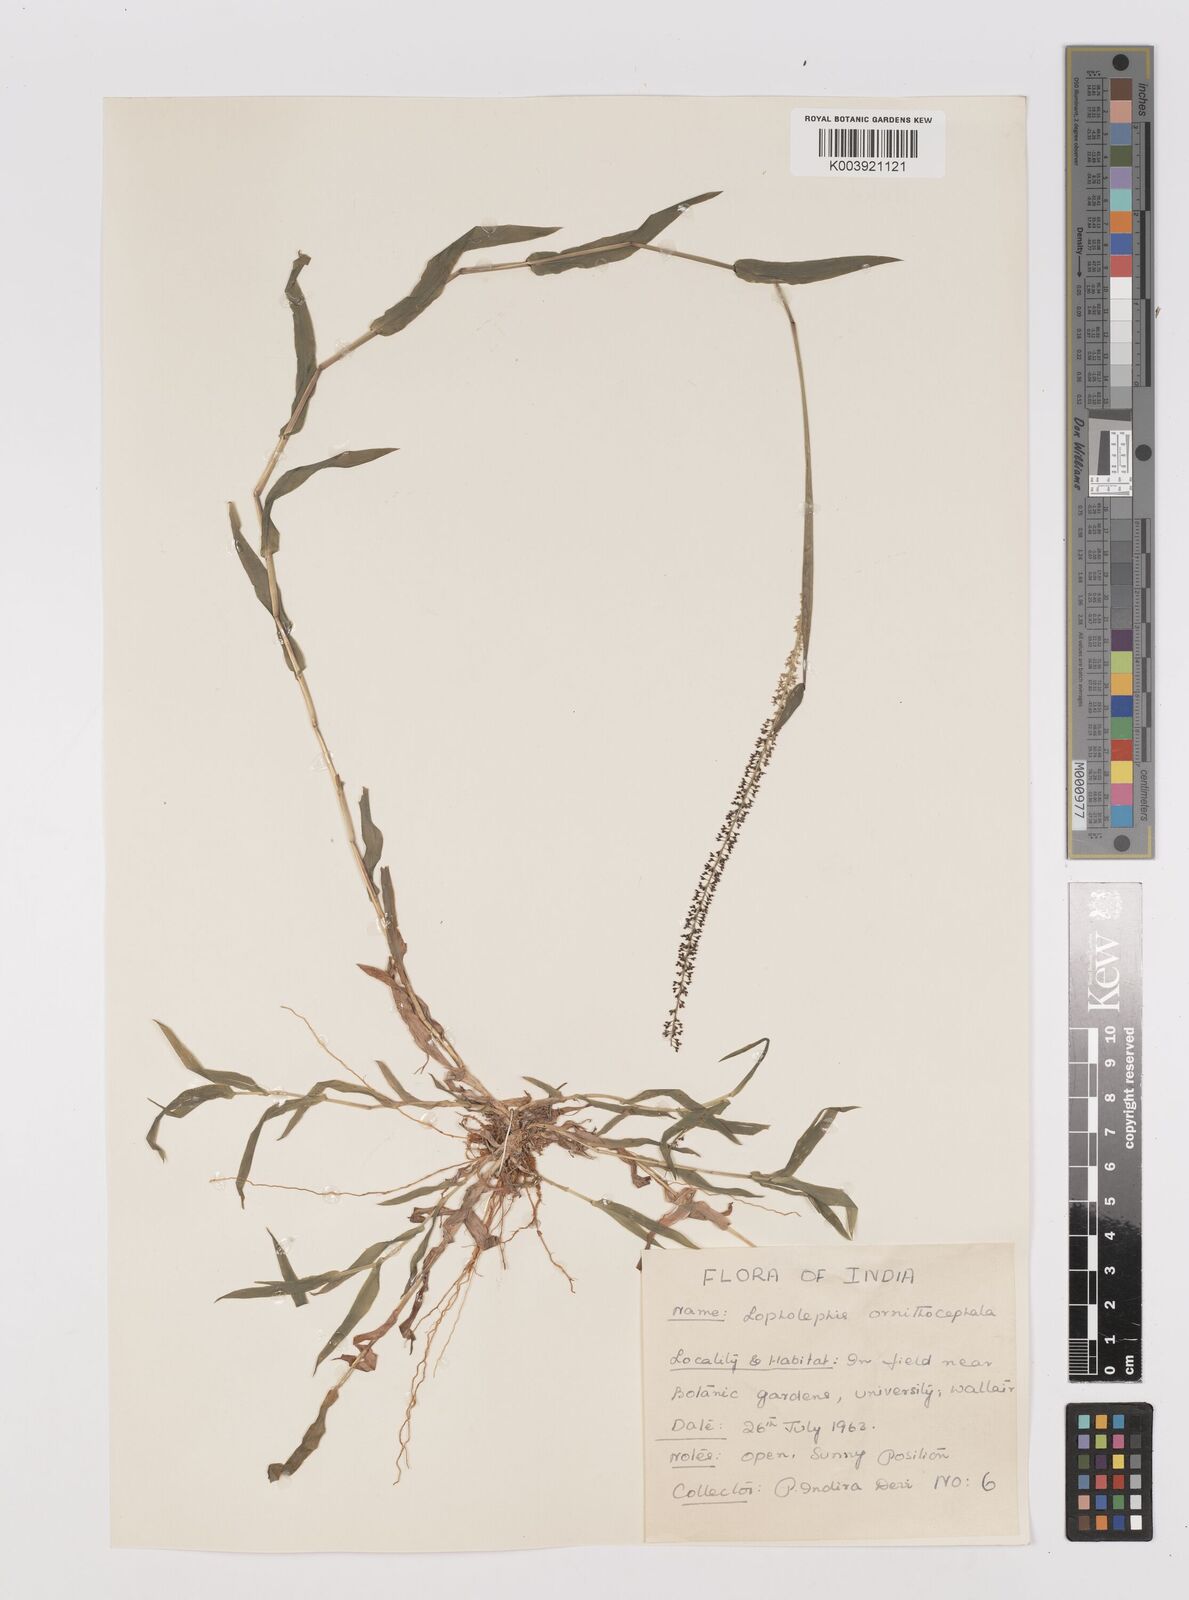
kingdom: Plantae
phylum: Tracheophyta
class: Liliopsida
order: Poales
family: Poaceae
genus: Perotis
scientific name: Perotis ornithocephala
